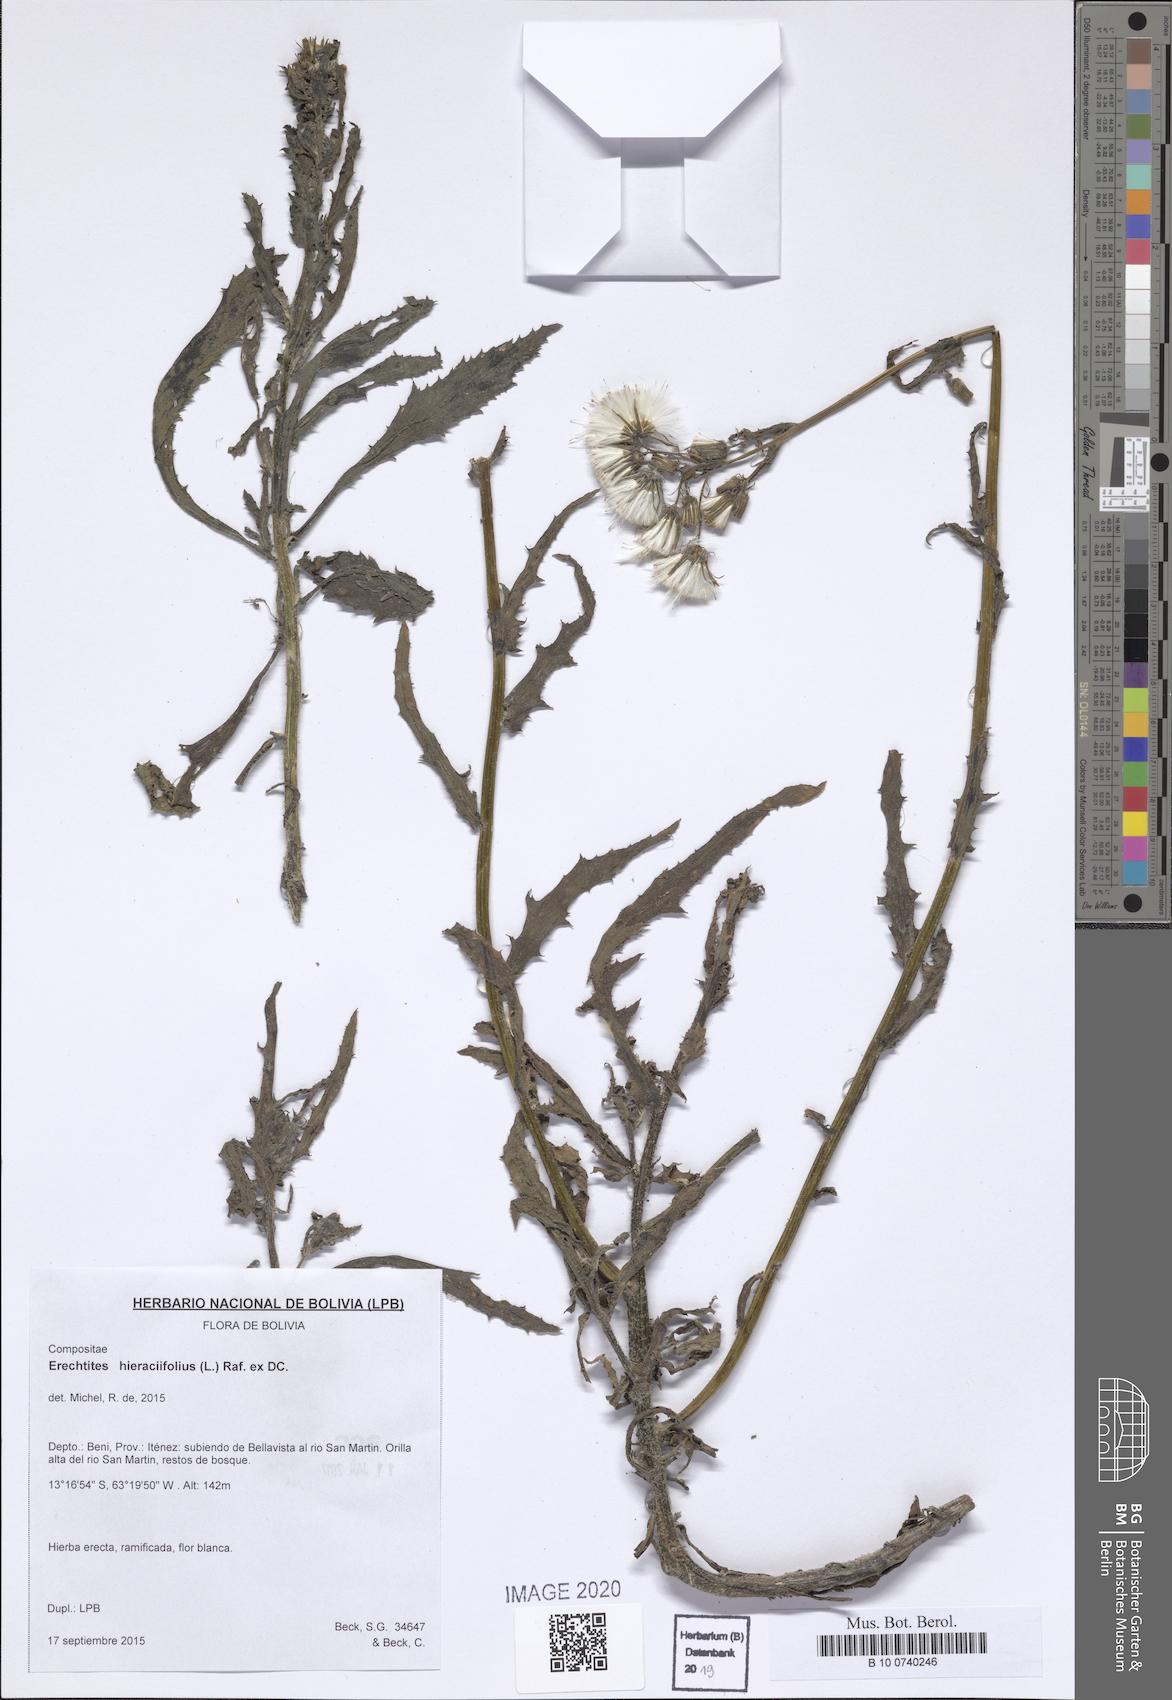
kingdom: Plantae
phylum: Tracheophyta
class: Magnoliopsida
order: Asterales
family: Asteraceae
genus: Erechtites
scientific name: Erechtites hieraciifolius
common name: American burnweed
